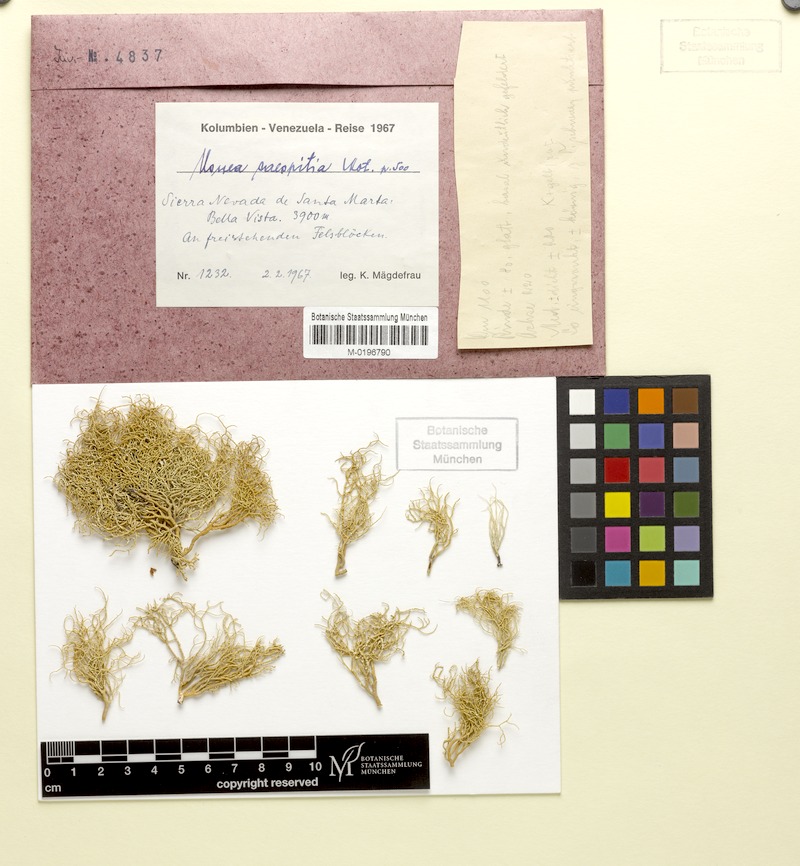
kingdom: Fungi
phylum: Ascomycota
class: Lecanoromycetes
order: Lecanorales
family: Parmeliaceae
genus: Usnea
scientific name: Usnea caespitia
